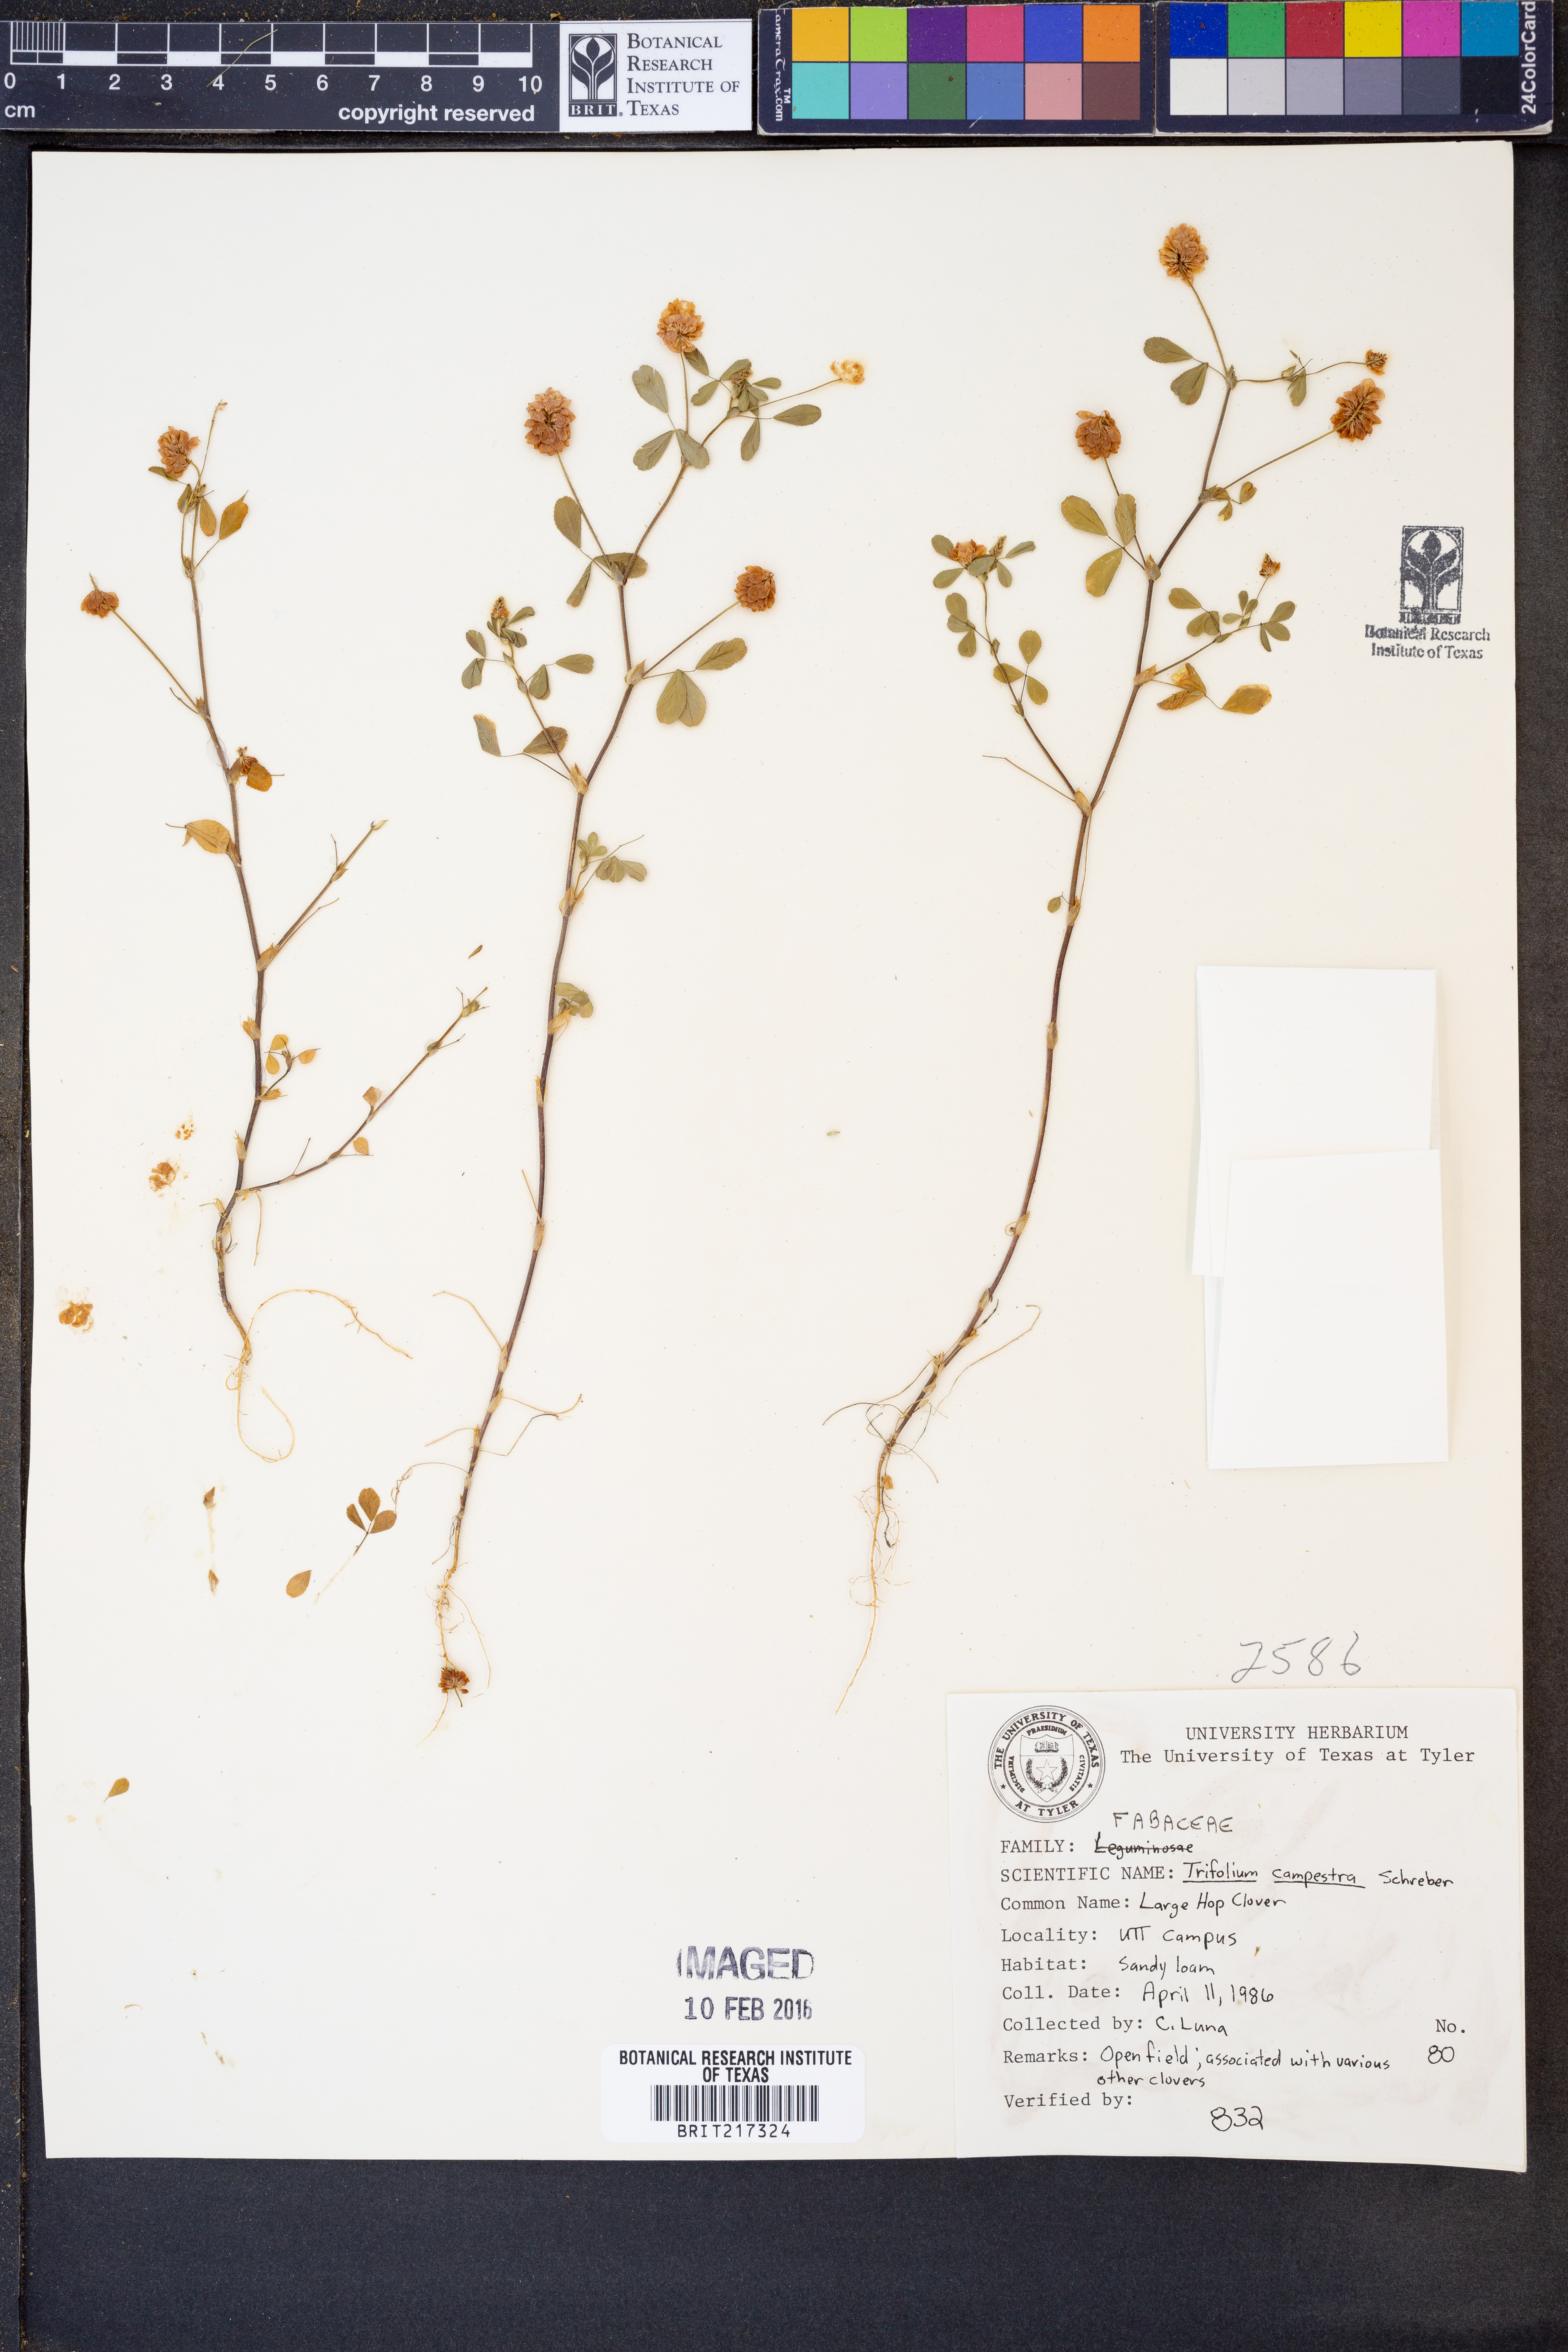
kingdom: Plantae
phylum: Tracheophyta
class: Magnoliopsida
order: Fabales
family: Fabaceae
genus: Trifolium
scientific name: Trifolium campestre
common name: Field clover
